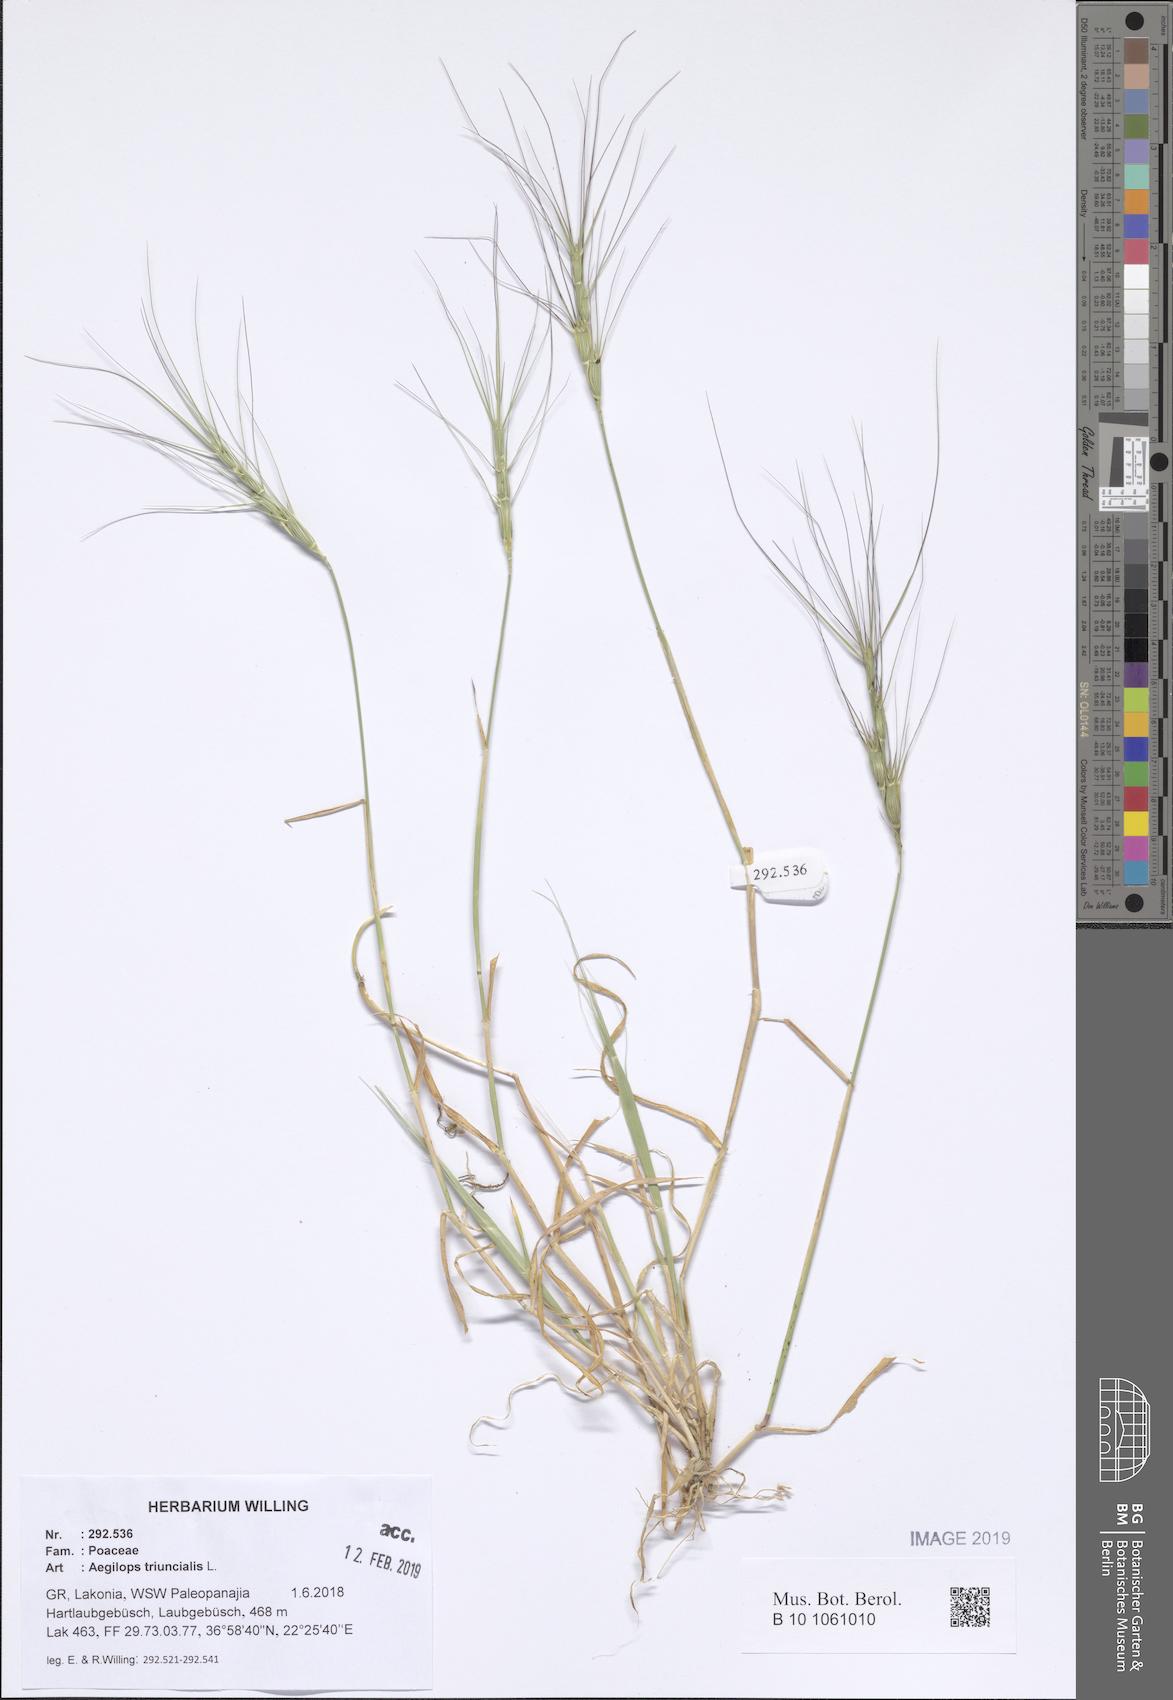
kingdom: Plantae
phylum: Tracheophyta
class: Liliopsida
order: Poales
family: Poaceae
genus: Aegilops
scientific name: Aegilops triuncialis
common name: Barb goat grass
